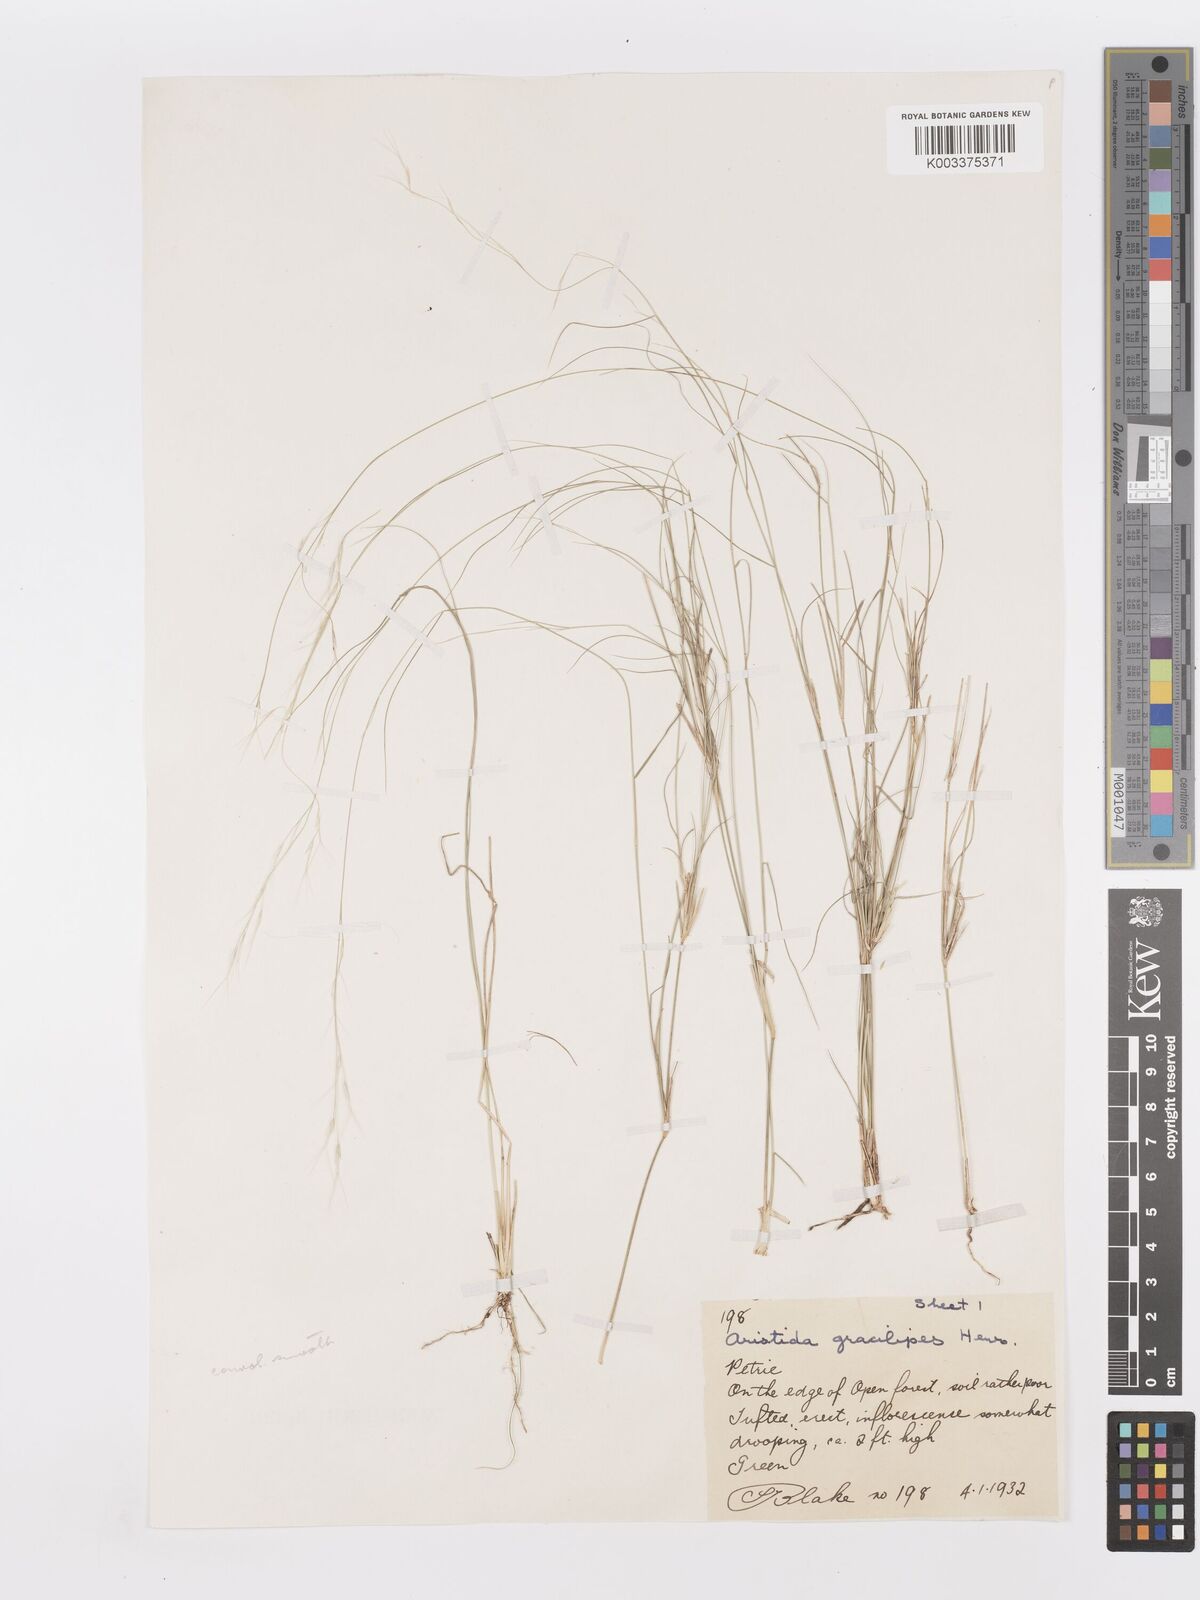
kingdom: Plantae
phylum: Tracheophyta
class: Liliopsida
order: Poales
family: Poaceae
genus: Aristida
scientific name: Aristida gracilipes
